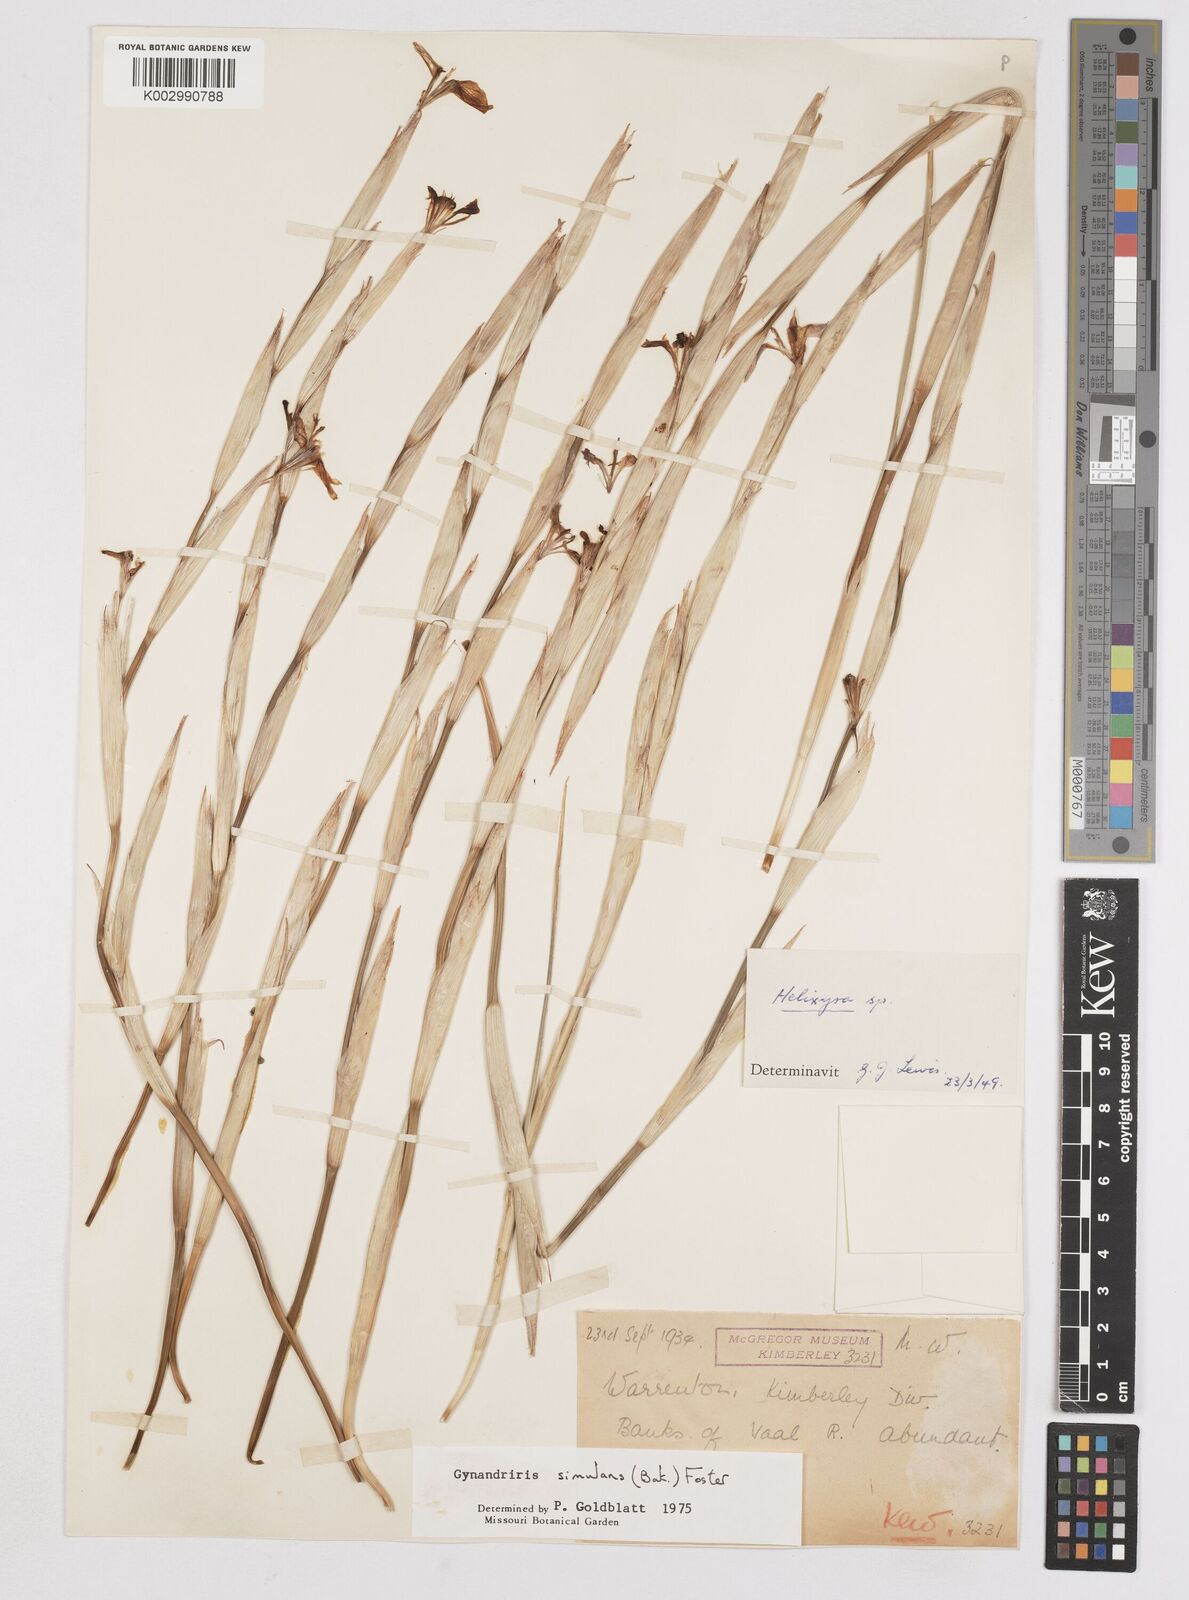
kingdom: Plantae
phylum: Tracheophyta
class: Liliopsida
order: Asparagales
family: Iridaceae
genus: Moraea
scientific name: Moraea simulans
